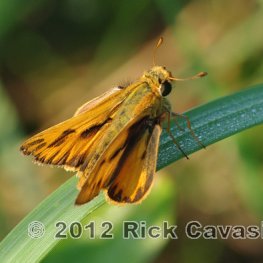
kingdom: Animalia
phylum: Arthropoda
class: Insecta
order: Lepidoptera
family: Hesperiidae
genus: Hylephila
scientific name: Hylephila phyleus
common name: Fiery Skipper
